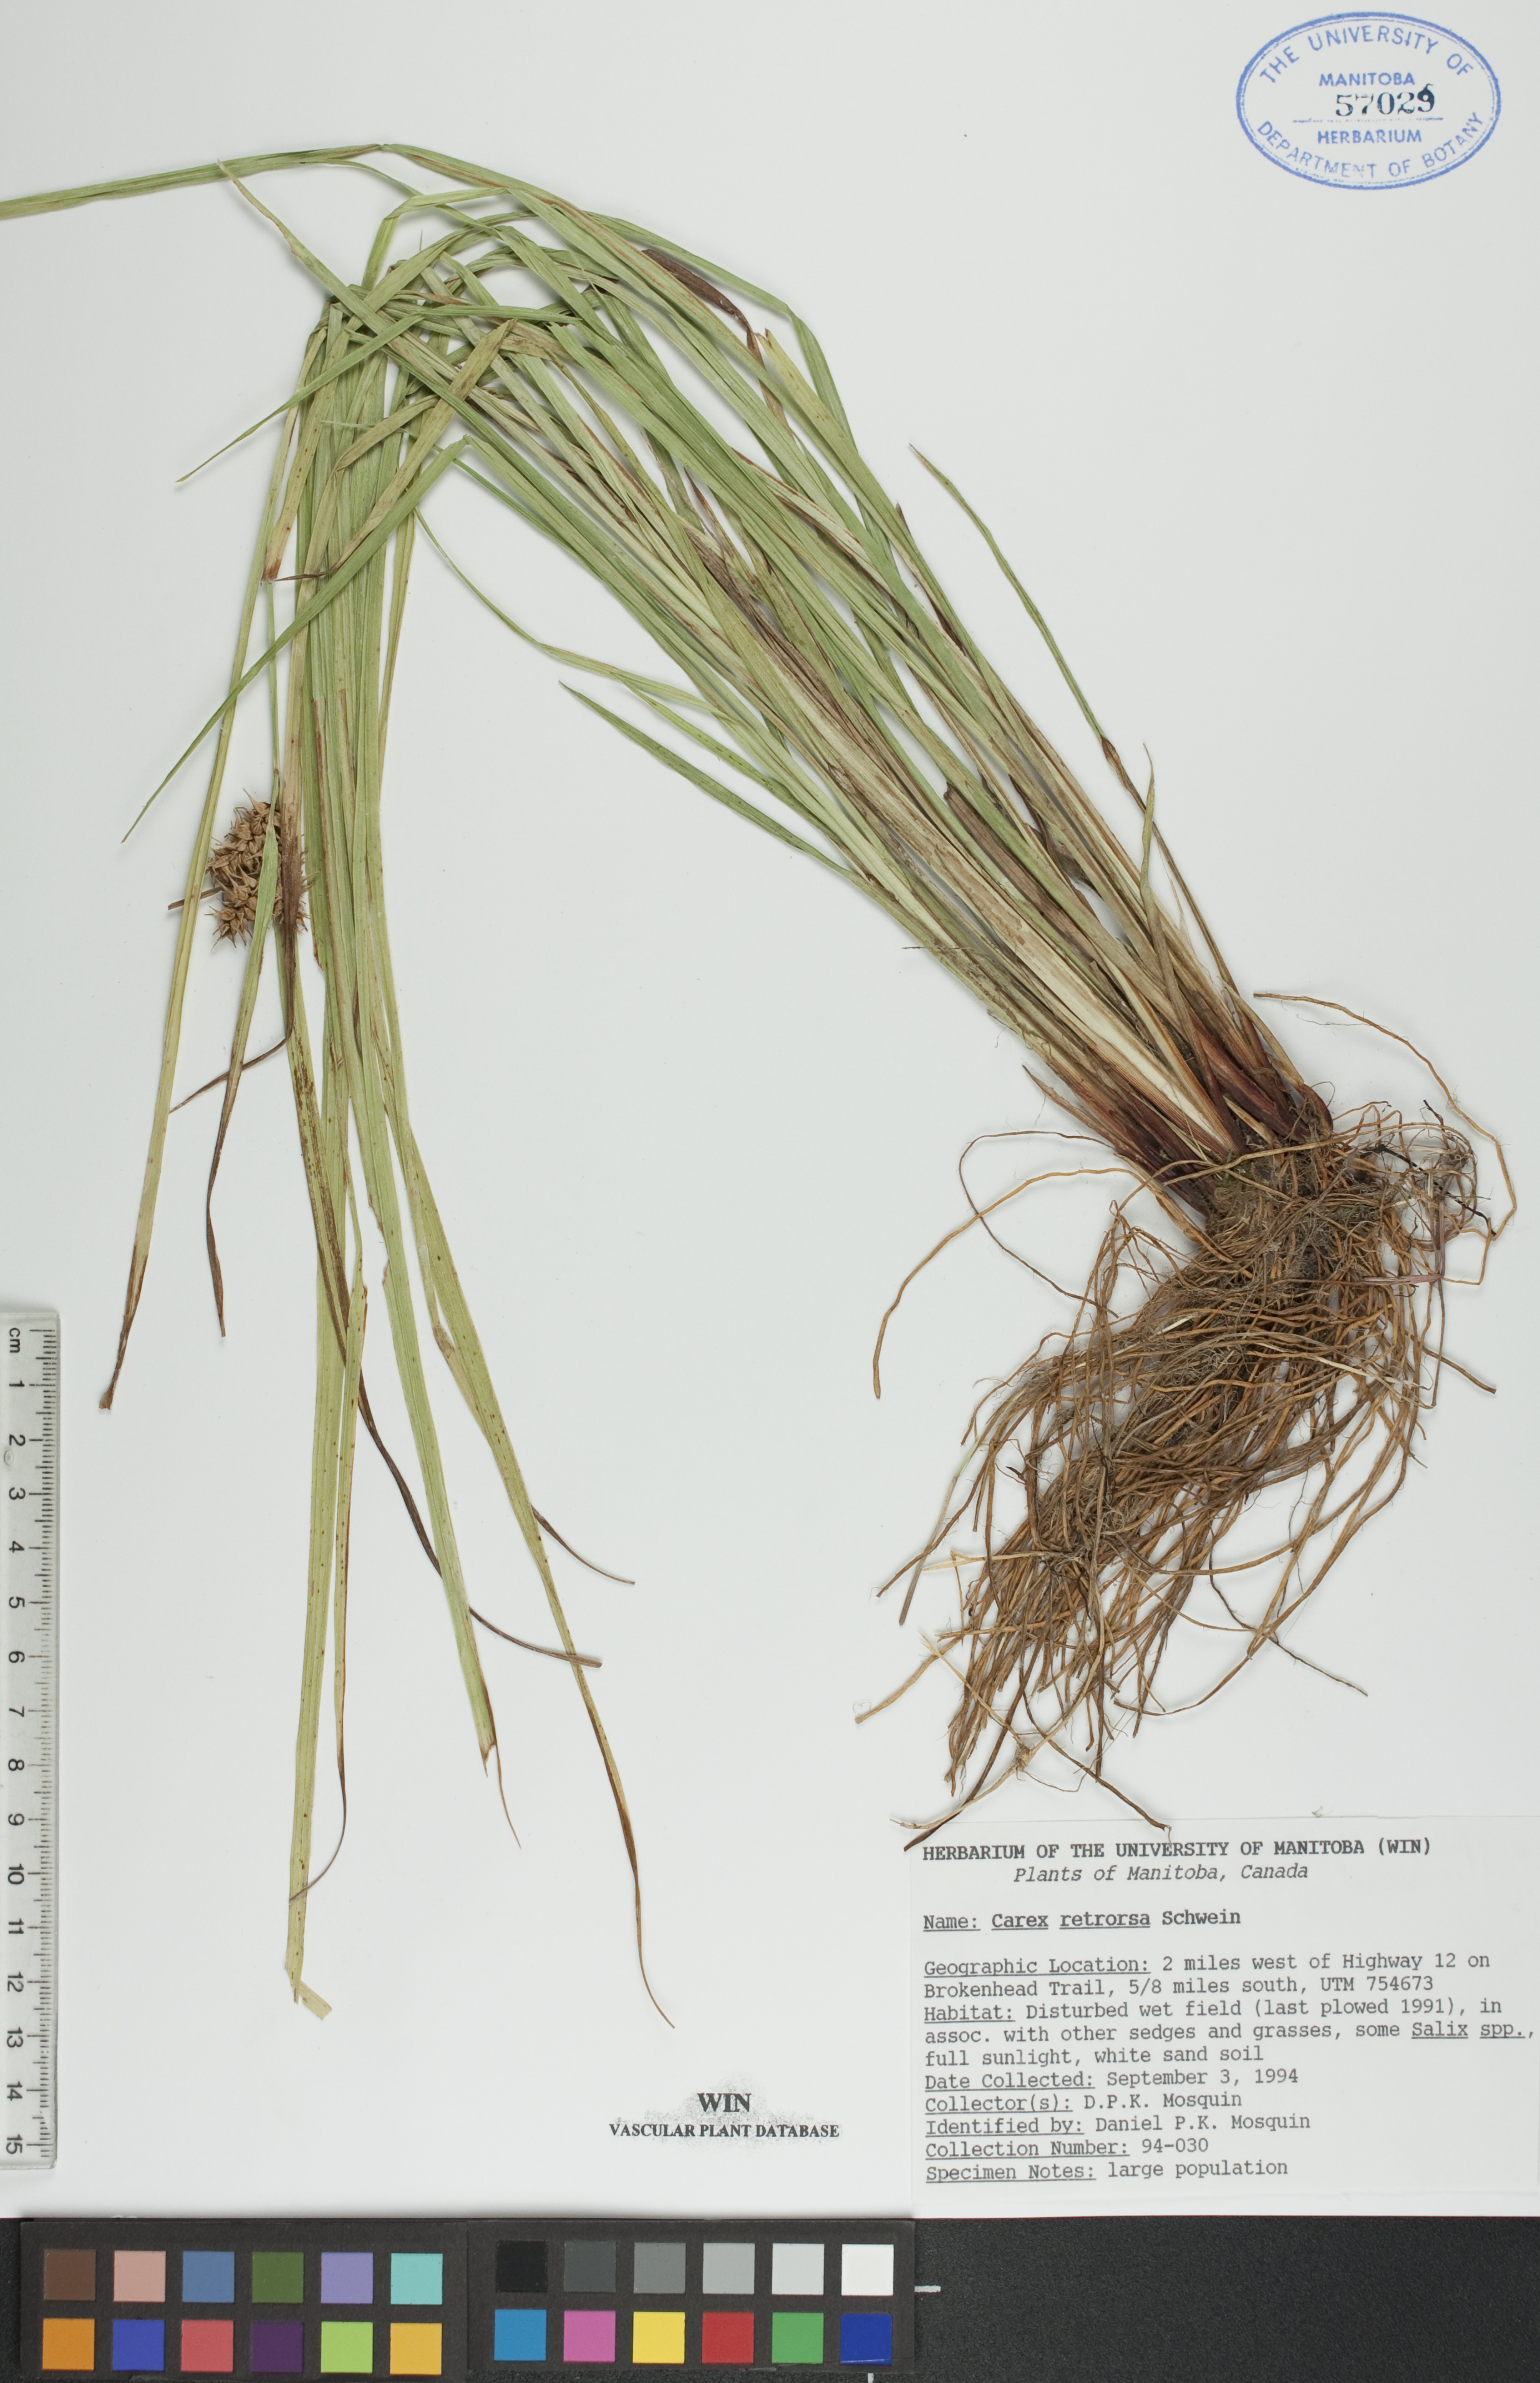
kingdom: Plantae
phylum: Tracheophyta
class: Liliopsida
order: Poales
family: Cyperaceae
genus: Carex
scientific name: Carex retrorsa
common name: Knot-sheath sedge
